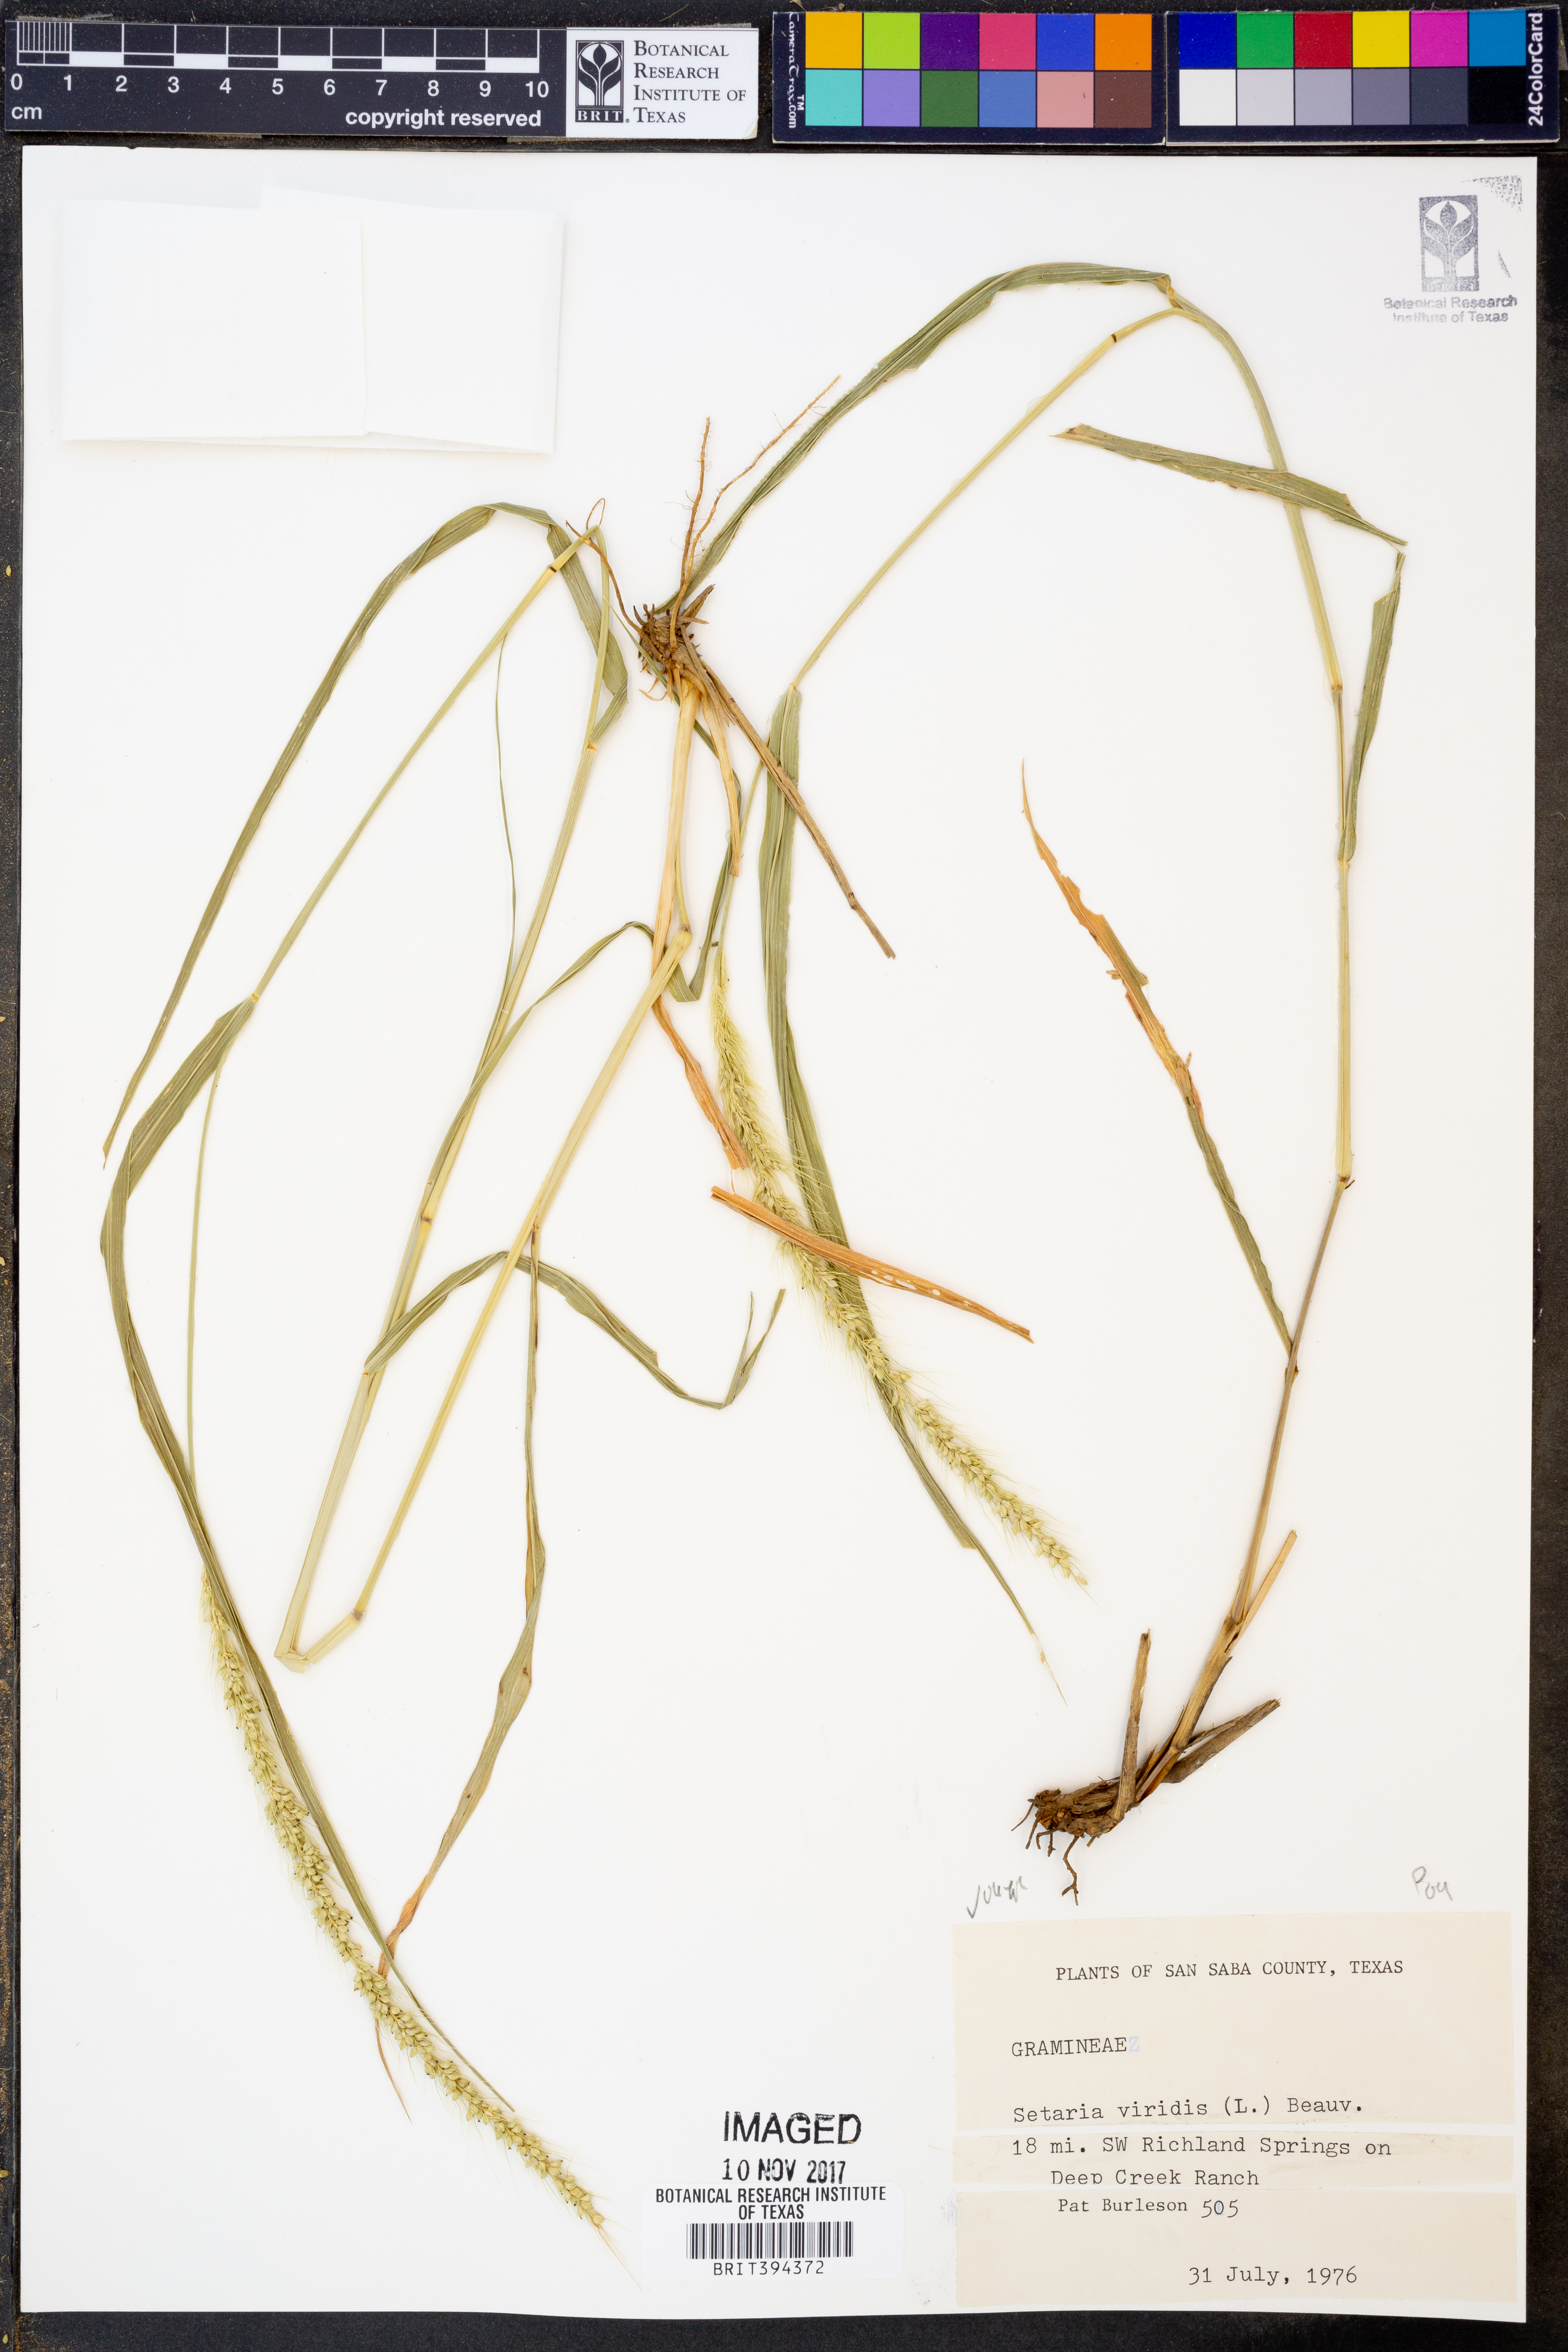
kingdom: Plantae
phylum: Tracheophyta
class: Liliopsida
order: Poales
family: Poaceae
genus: Setaria
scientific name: Setaria viridis
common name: Green bristlegrass
